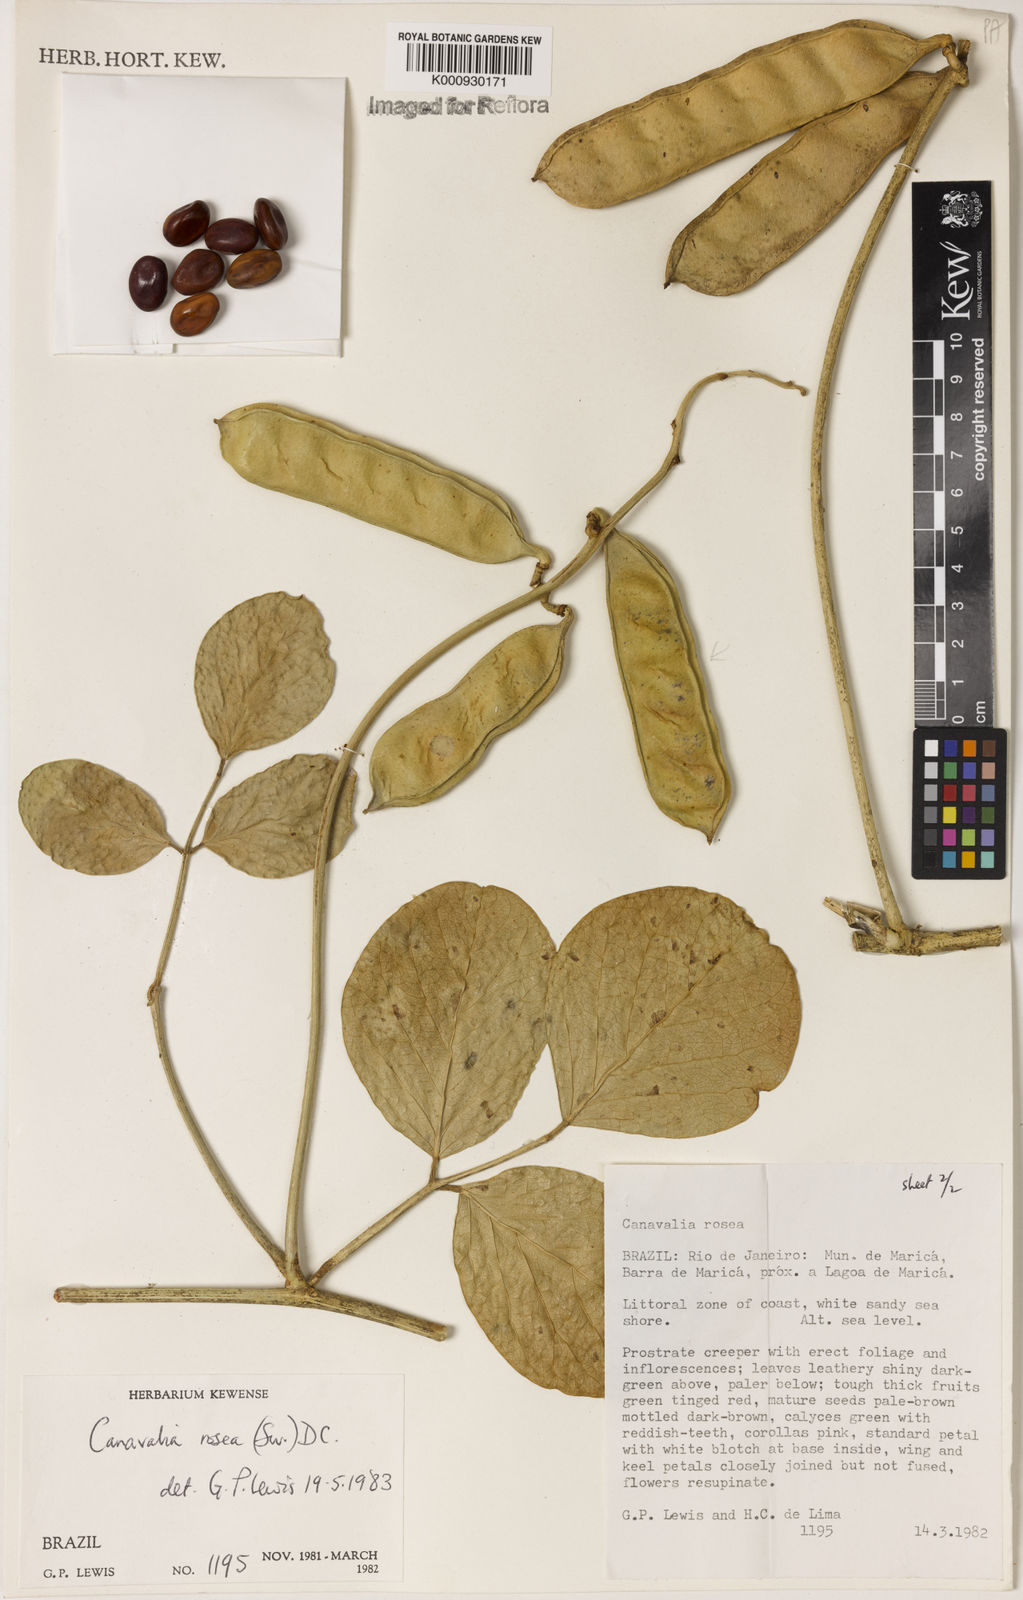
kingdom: Plantae
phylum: Tracheophyta
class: Magnoliopsida
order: Fabales
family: Fabaceae
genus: Canavalia
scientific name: Canavalia rosea
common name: Beach-bean
